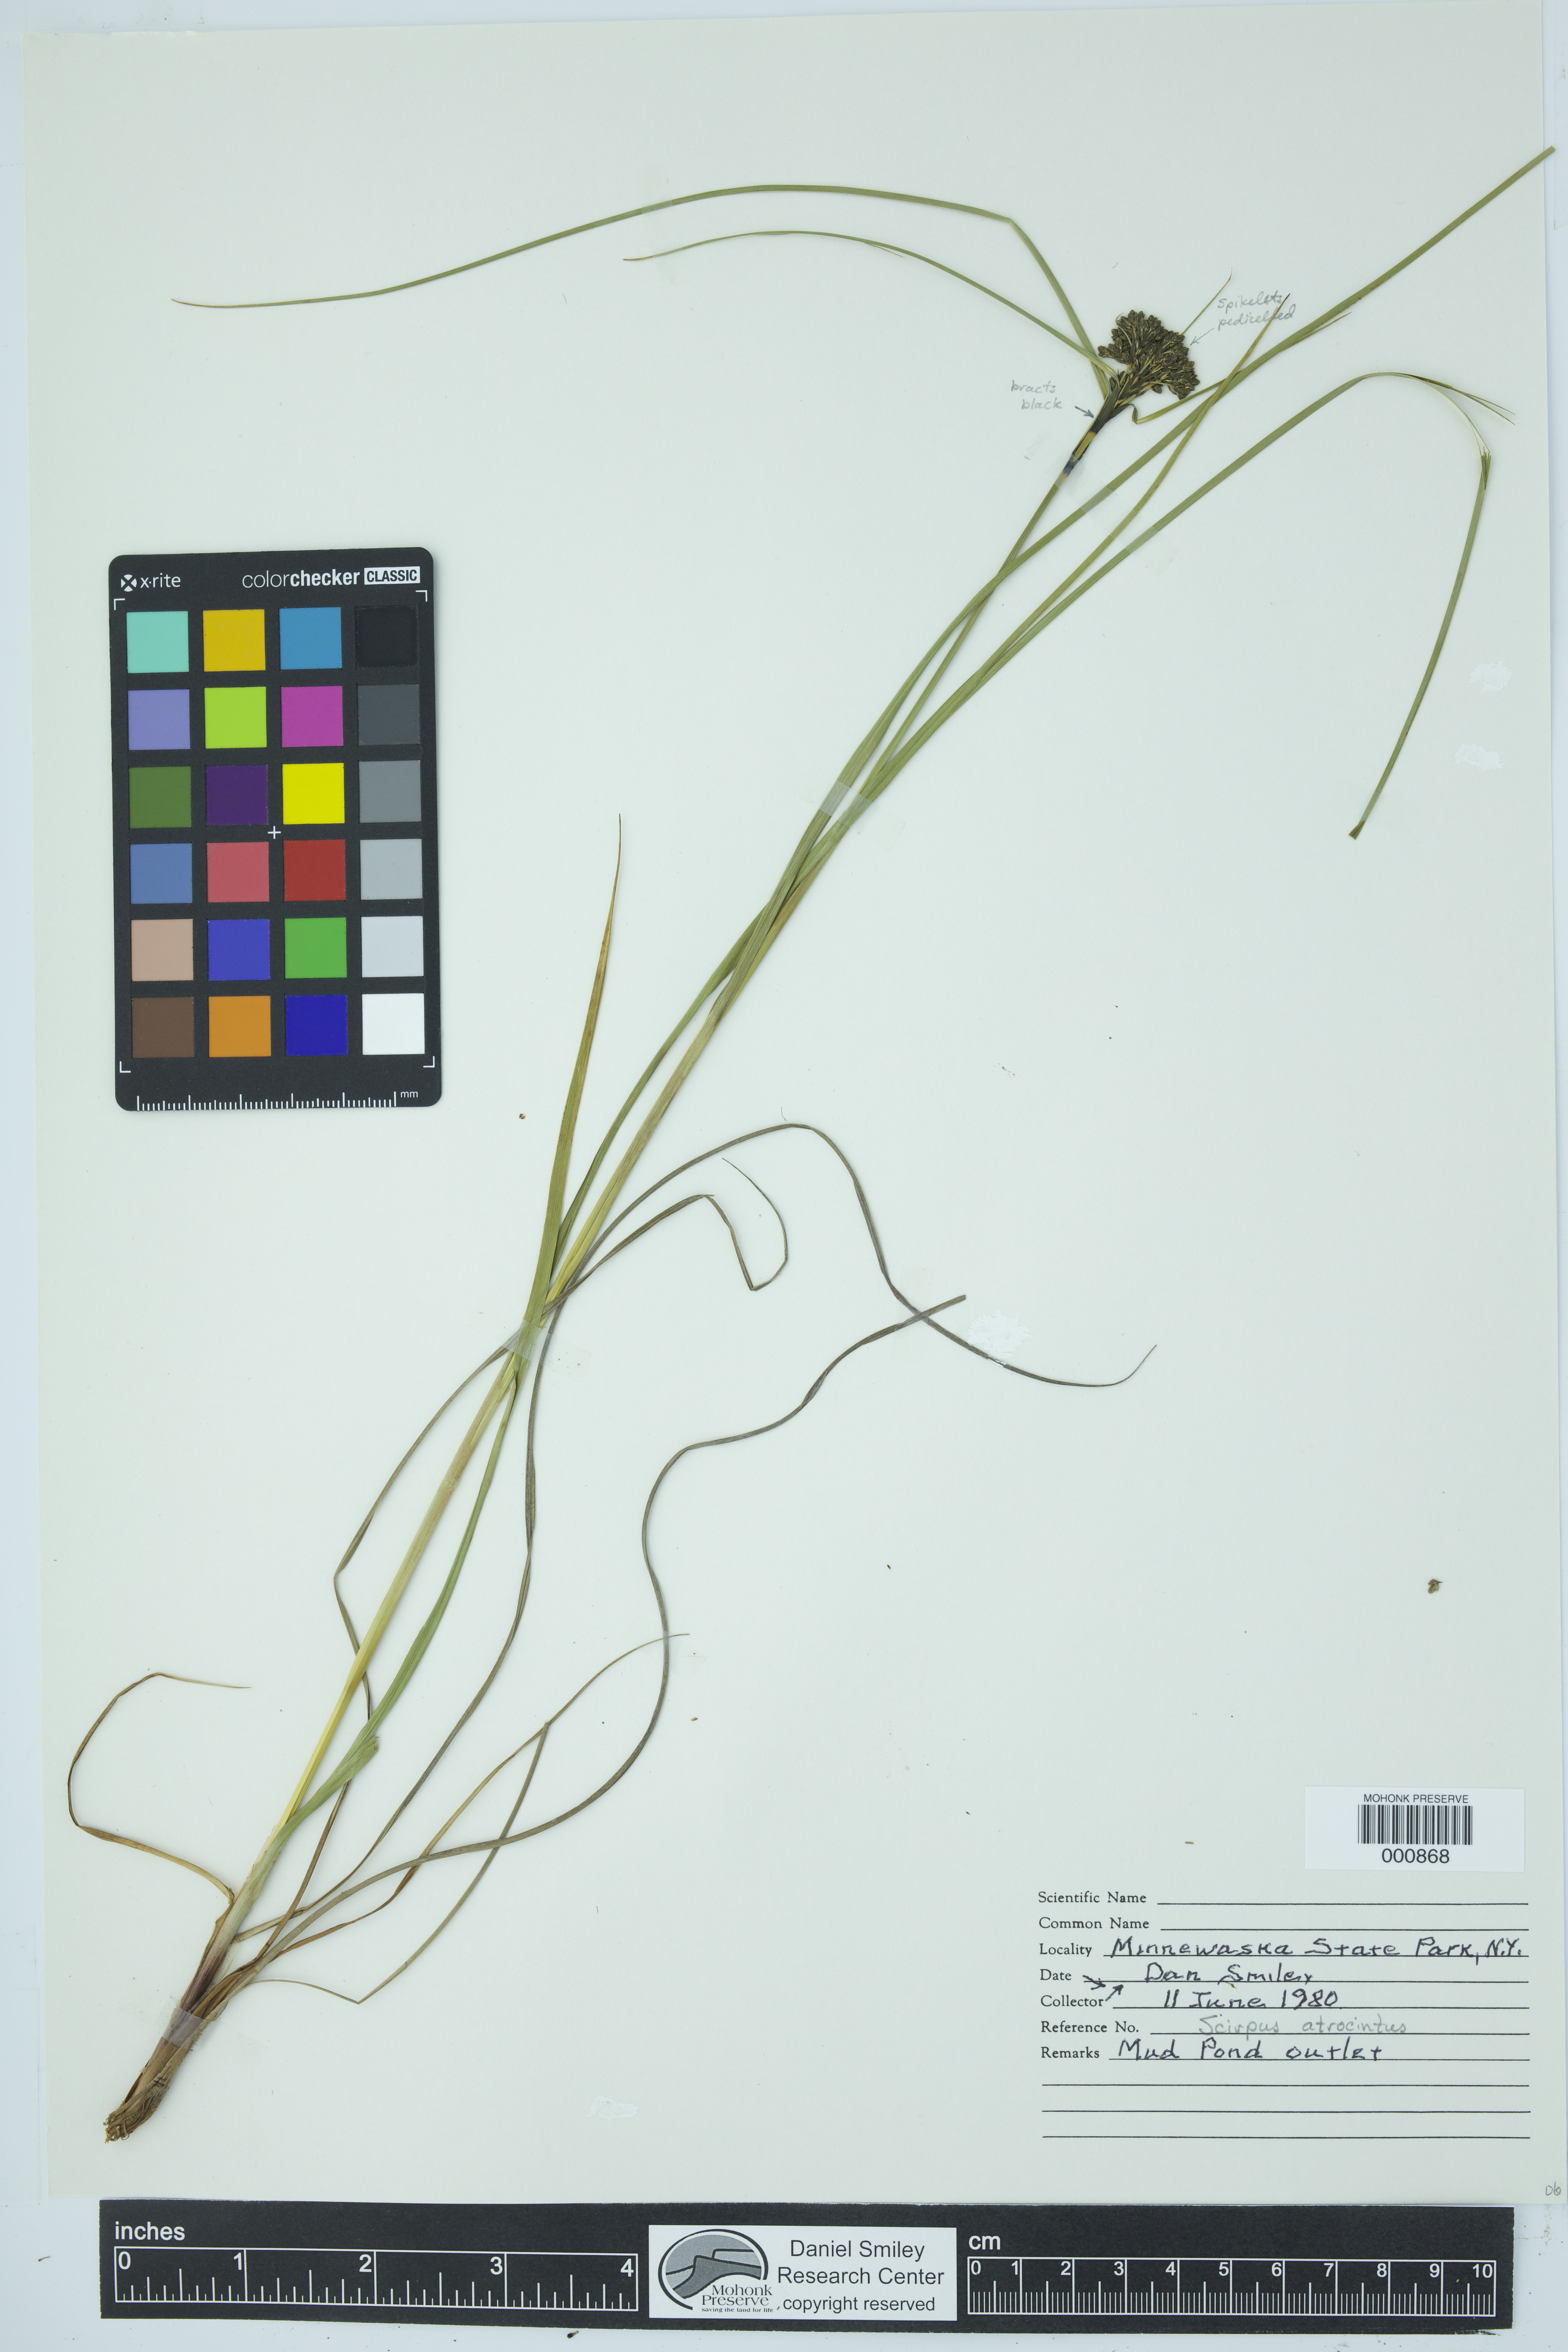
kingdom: Plantae
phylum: Tracheophyta
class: Liliopsida
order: Poales
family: Cyperaceae
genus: Scirpus
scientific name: Scirpus atrocinctus
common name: Black-girdled bulrush
